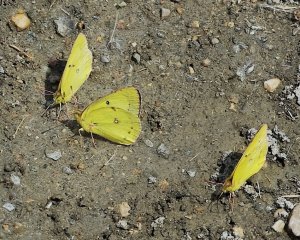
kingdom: Animalia
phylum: Arthropoda
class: Insecta
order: Lepidoptera
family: Pieridae
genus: Colias
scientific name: Colias philodice
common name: Clouded Sulphur
